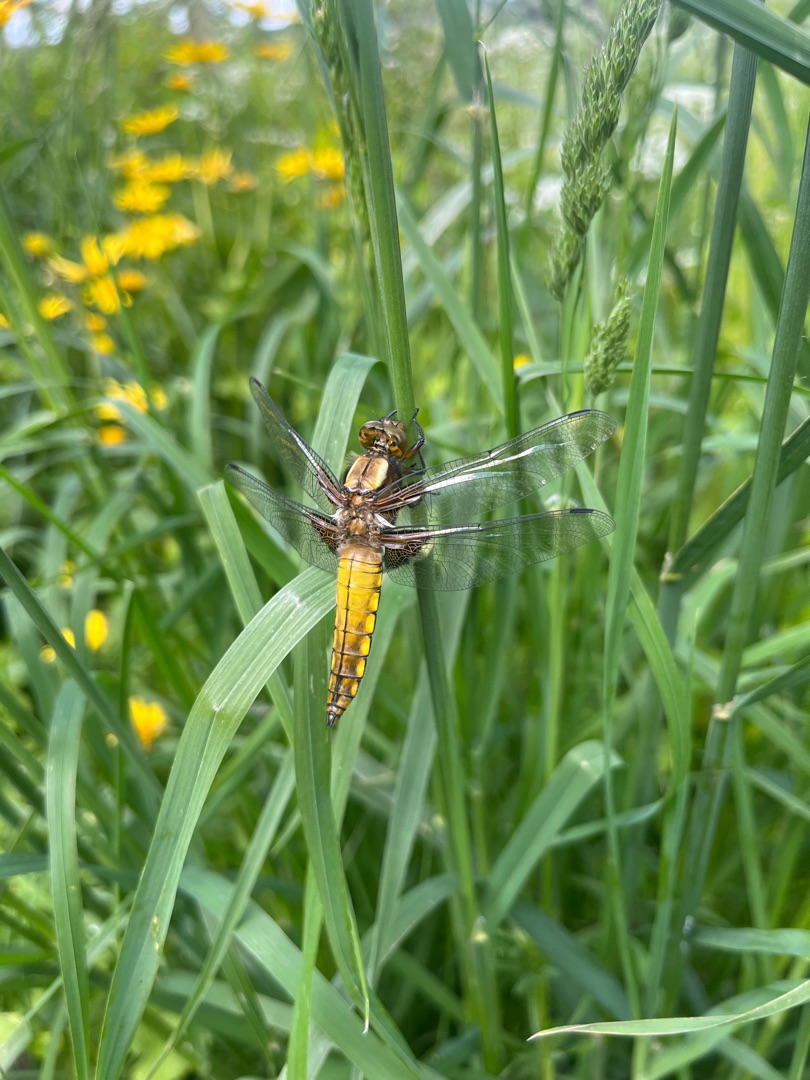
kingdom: Animalia
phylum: Arthropoda
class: Insecta
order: Odonata
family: Libellulidae
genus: Libellula
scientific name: Libellula depressa
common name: Blå libel
